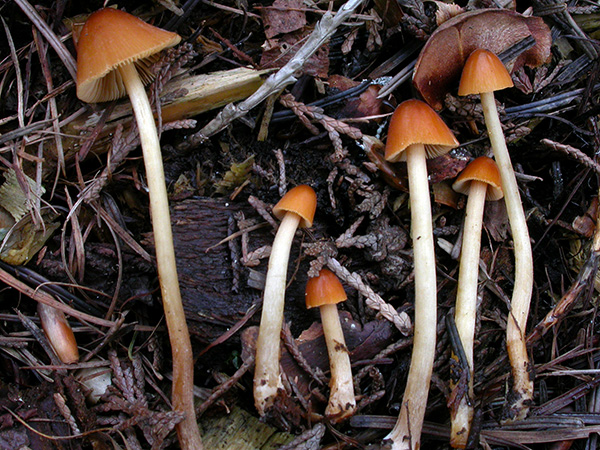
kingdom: Fungi
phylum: Basidiomycota
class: Agaricomycetes
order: Agaricales
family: Bolbitiaceae
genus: Conocybe
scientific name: Conocybe subpubescens
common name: krat-keglehat
